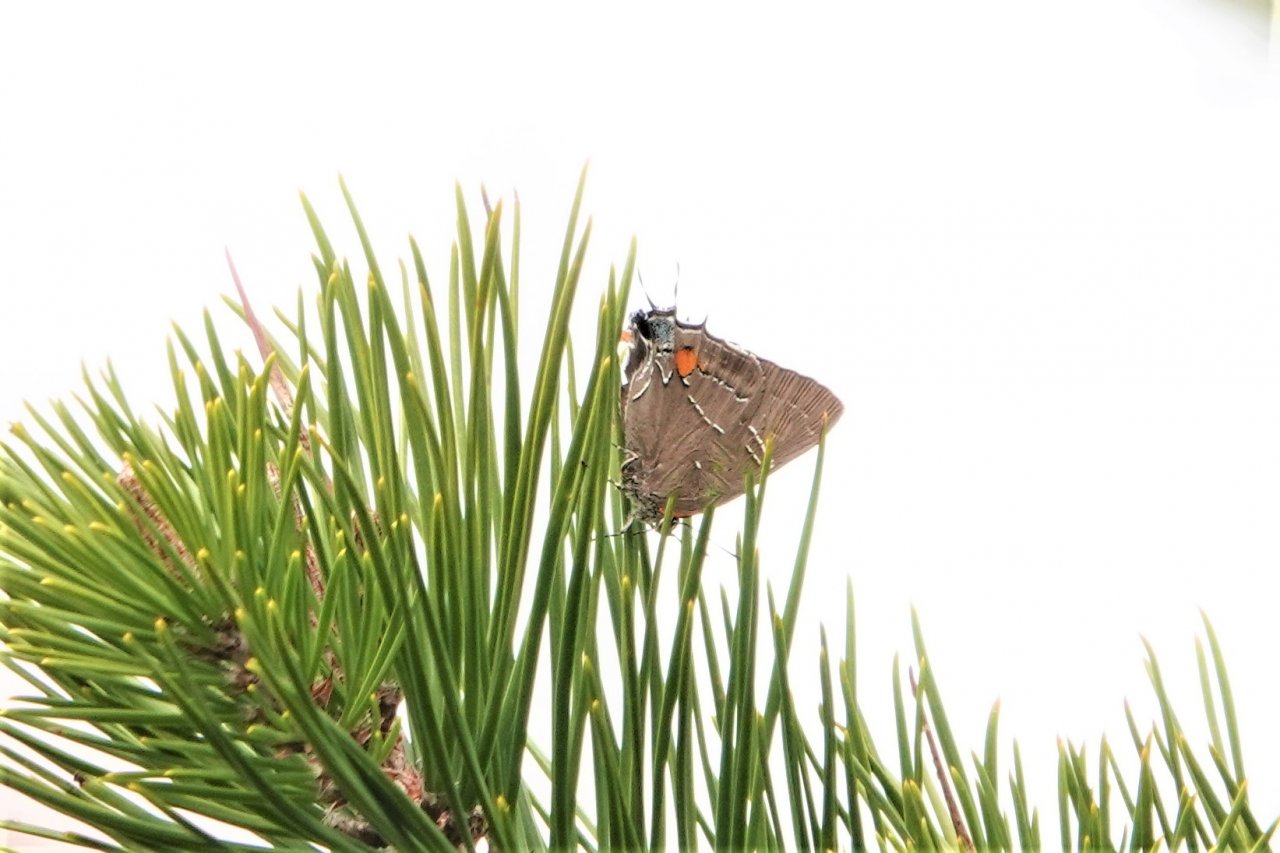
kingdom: Animalia
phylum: Arthropoda
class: Insecta
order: Lepidoptera
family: Lycaenidae
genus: Parrhasius
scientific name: Parrhasius m-album
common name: White-m Hairstreak
